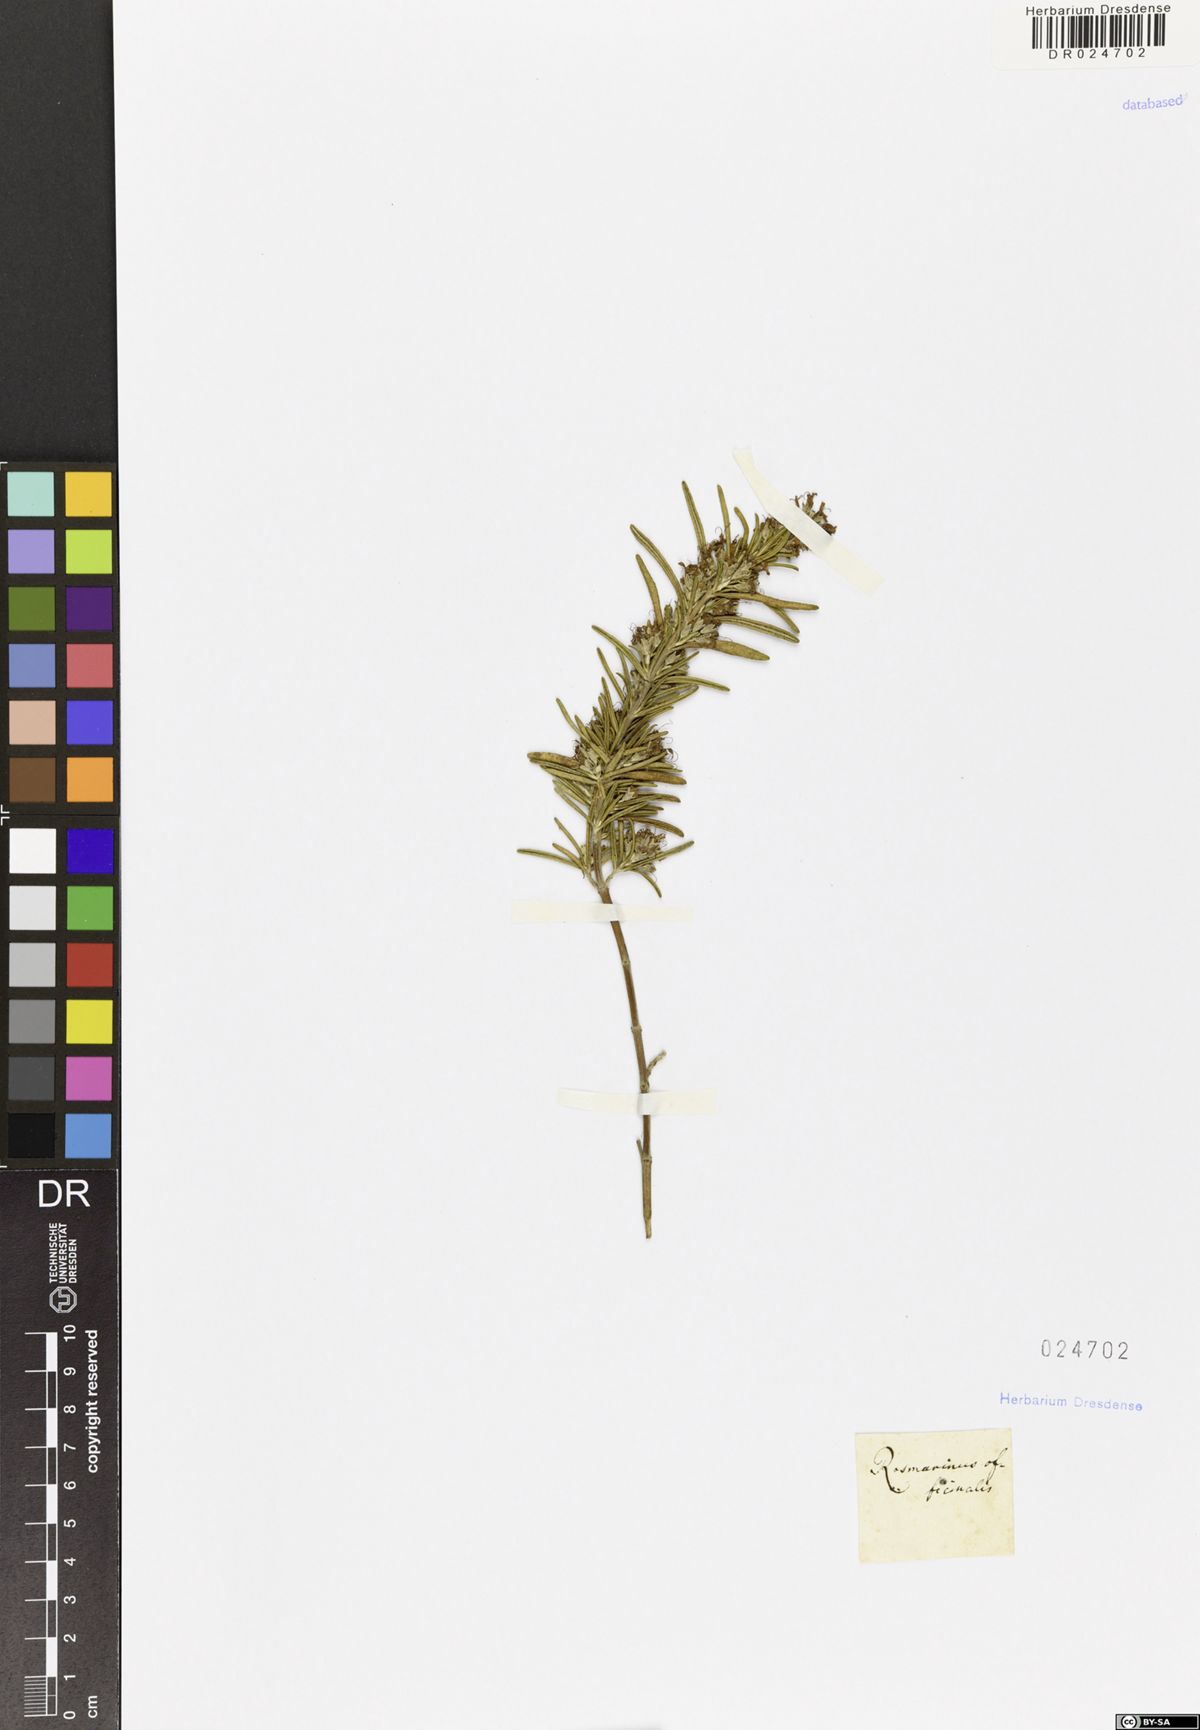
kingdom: Plantae
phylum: Tracheophyta
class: Magnoliopsida
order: Lamiales
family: Lamiaceae
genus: Salvia
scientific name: Salvia rosmarinus
